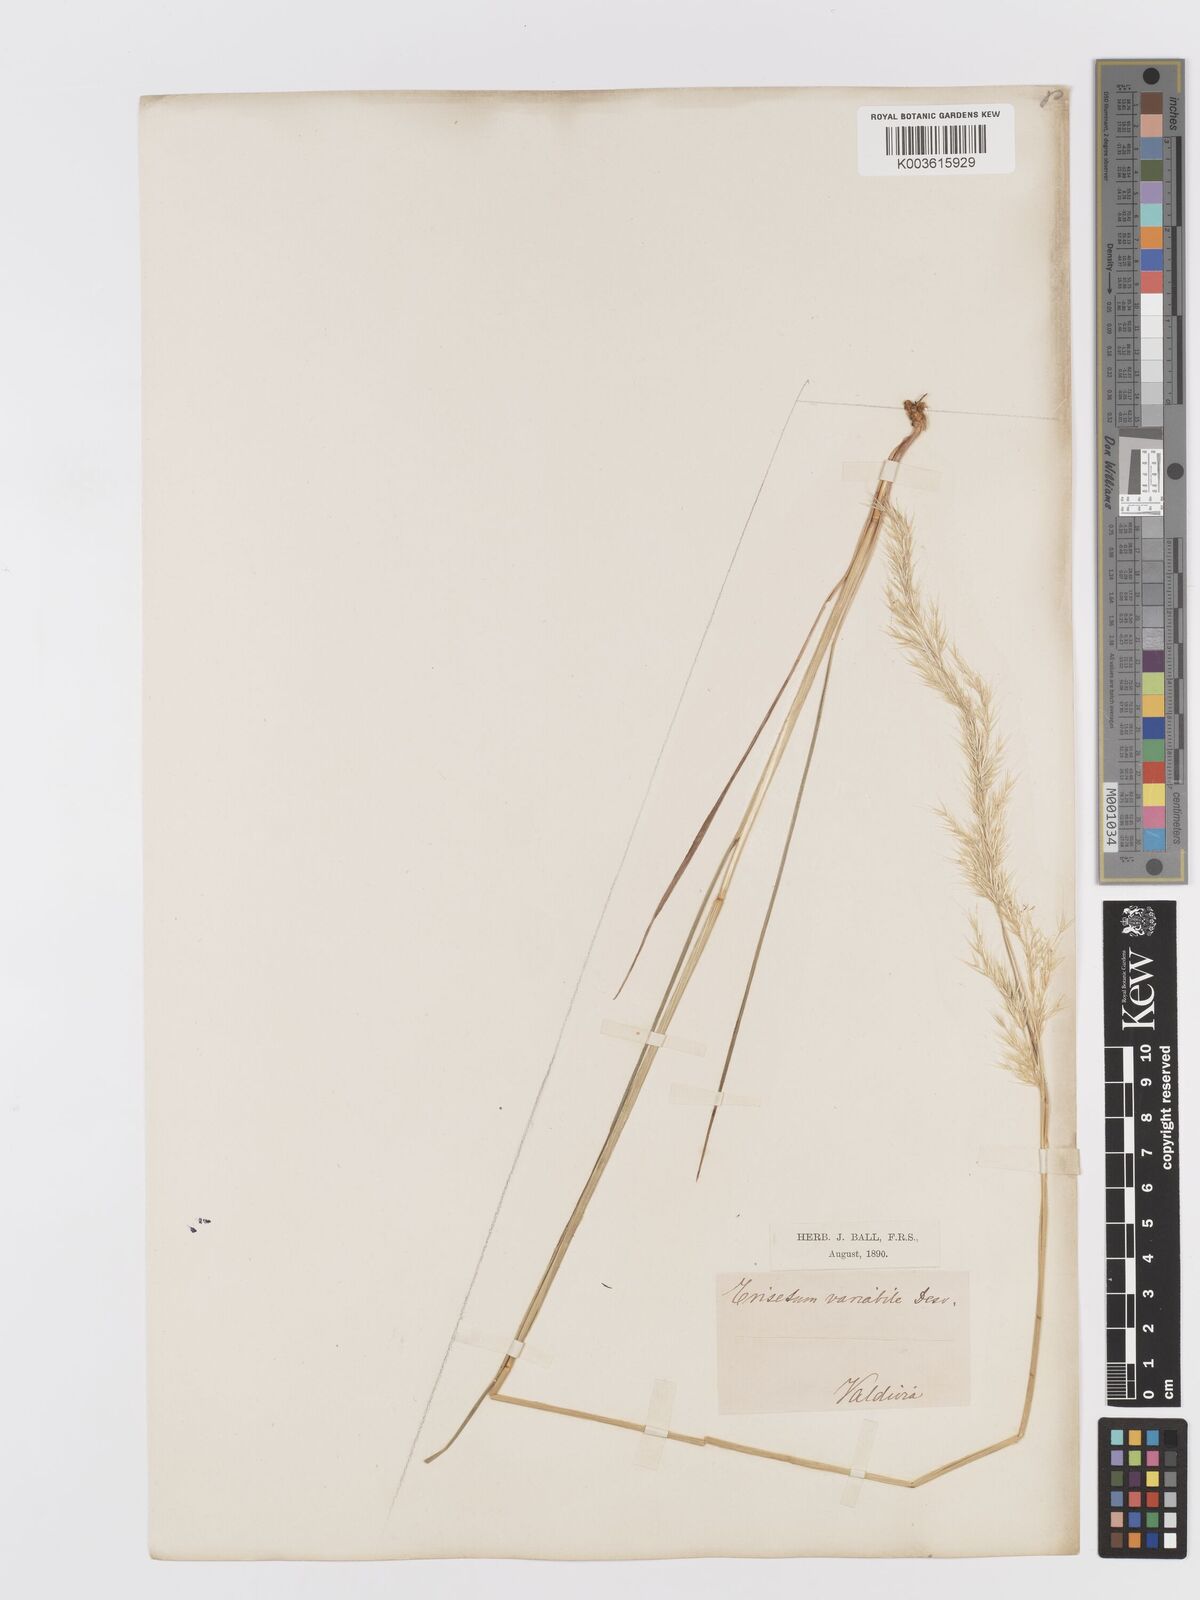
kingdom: Plantae
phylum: Tracheophyta
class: Liliopsida
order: Poales
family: Poaceae
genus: Koeleria
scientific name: Koeleria spicata
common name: Mountain trisetum
